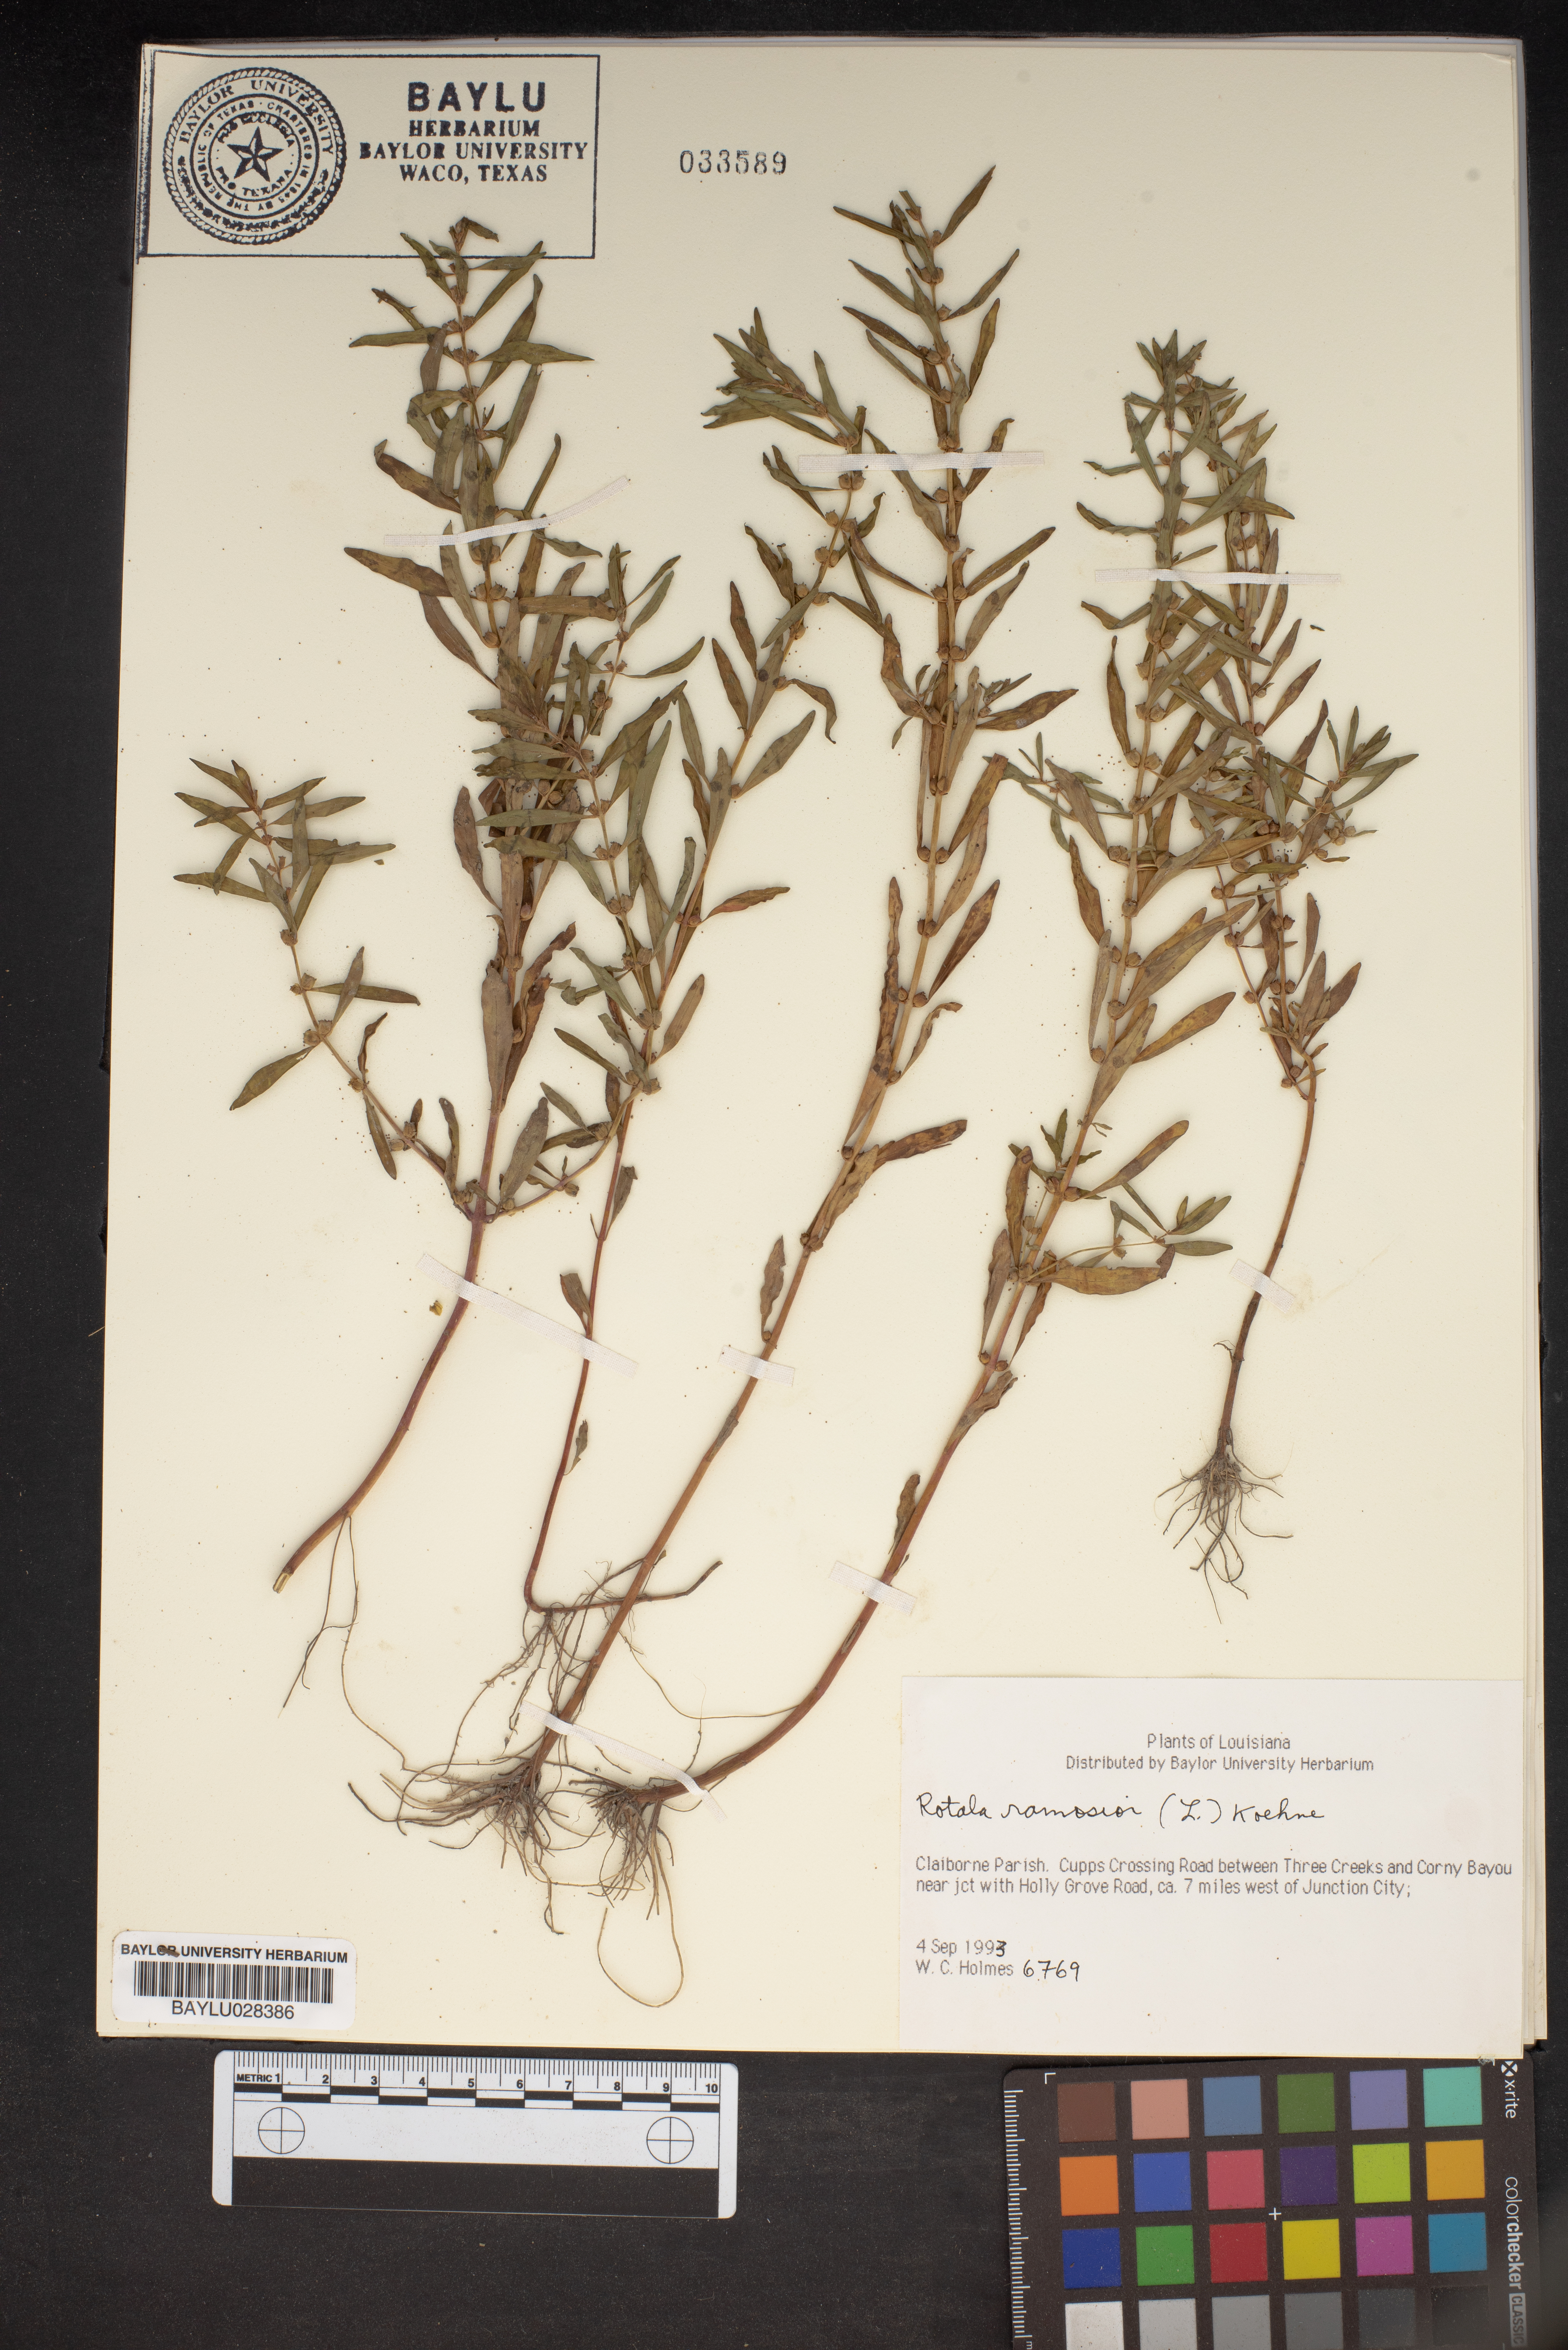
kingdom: Plantae
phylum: Tracheophyta
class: Magnoliopsida
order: Myrtales
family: Lythraceae
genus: Rotala
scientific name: Rotala ramosior
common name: Lowland rotala
